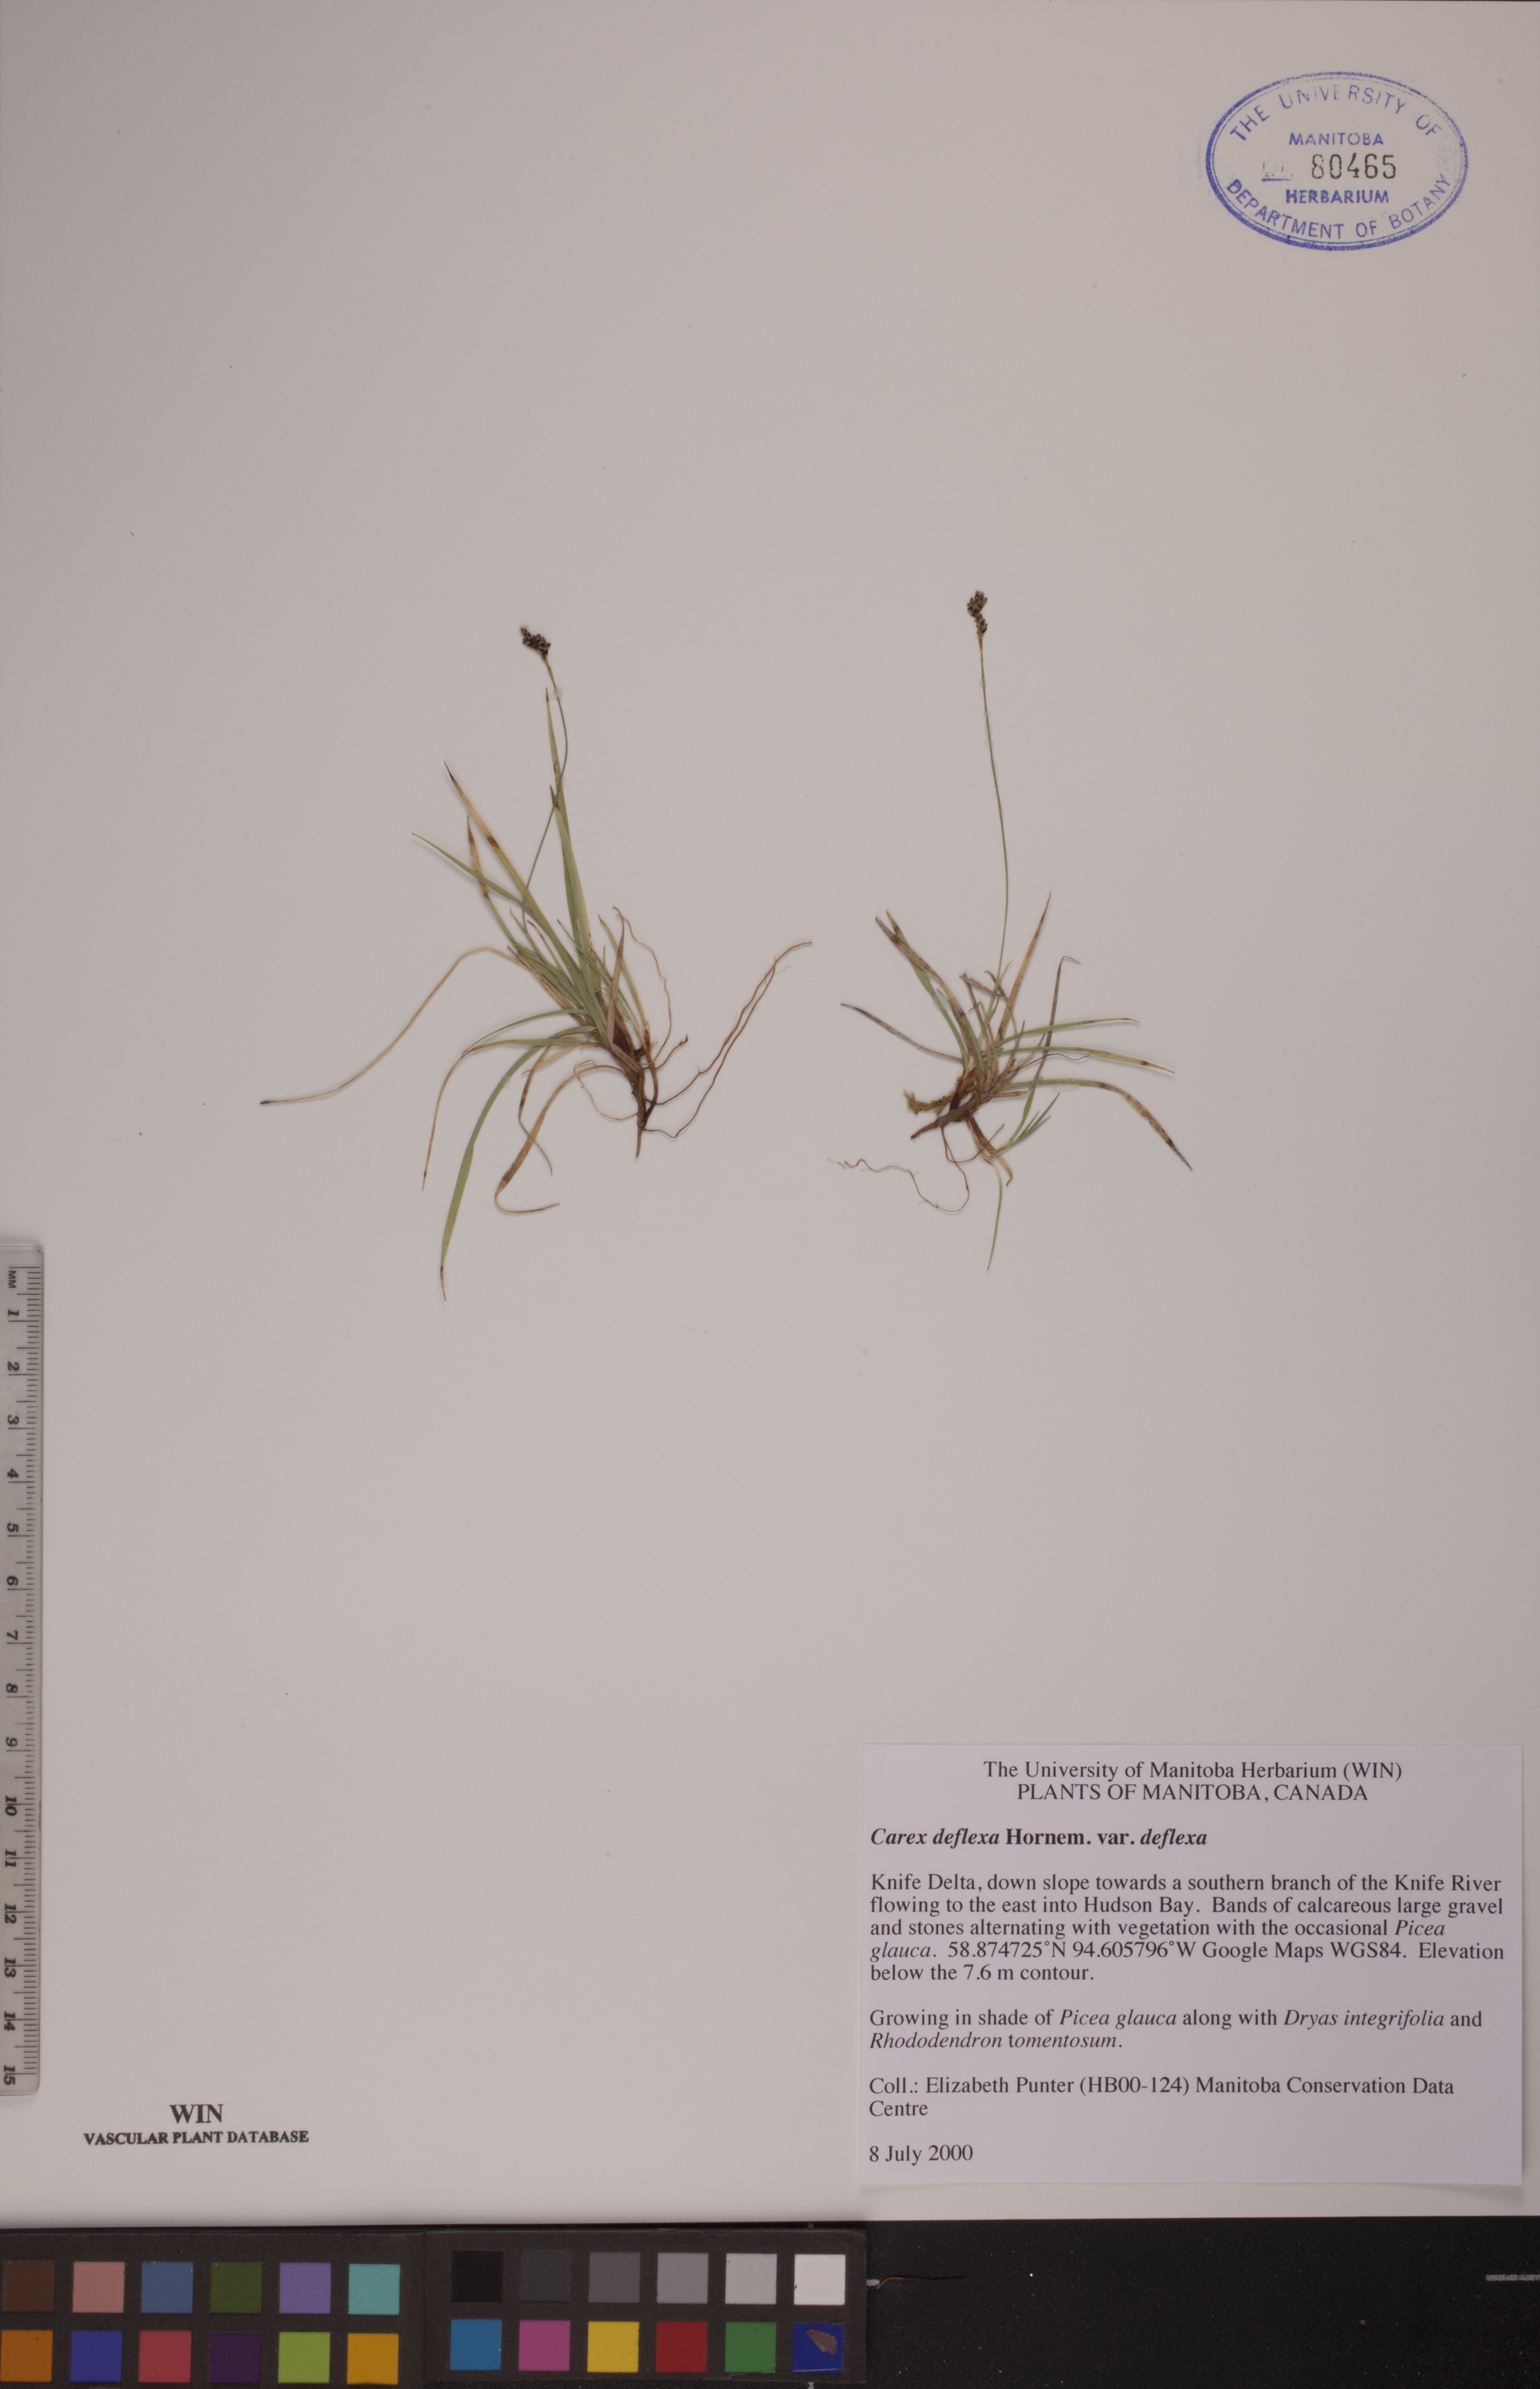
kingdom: Plantae
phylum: Tracheophyta
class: Liliopsida
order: Poales
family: Cyperaceae
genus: Carex
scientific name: Carex deflexa
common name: Bent northern sedge
